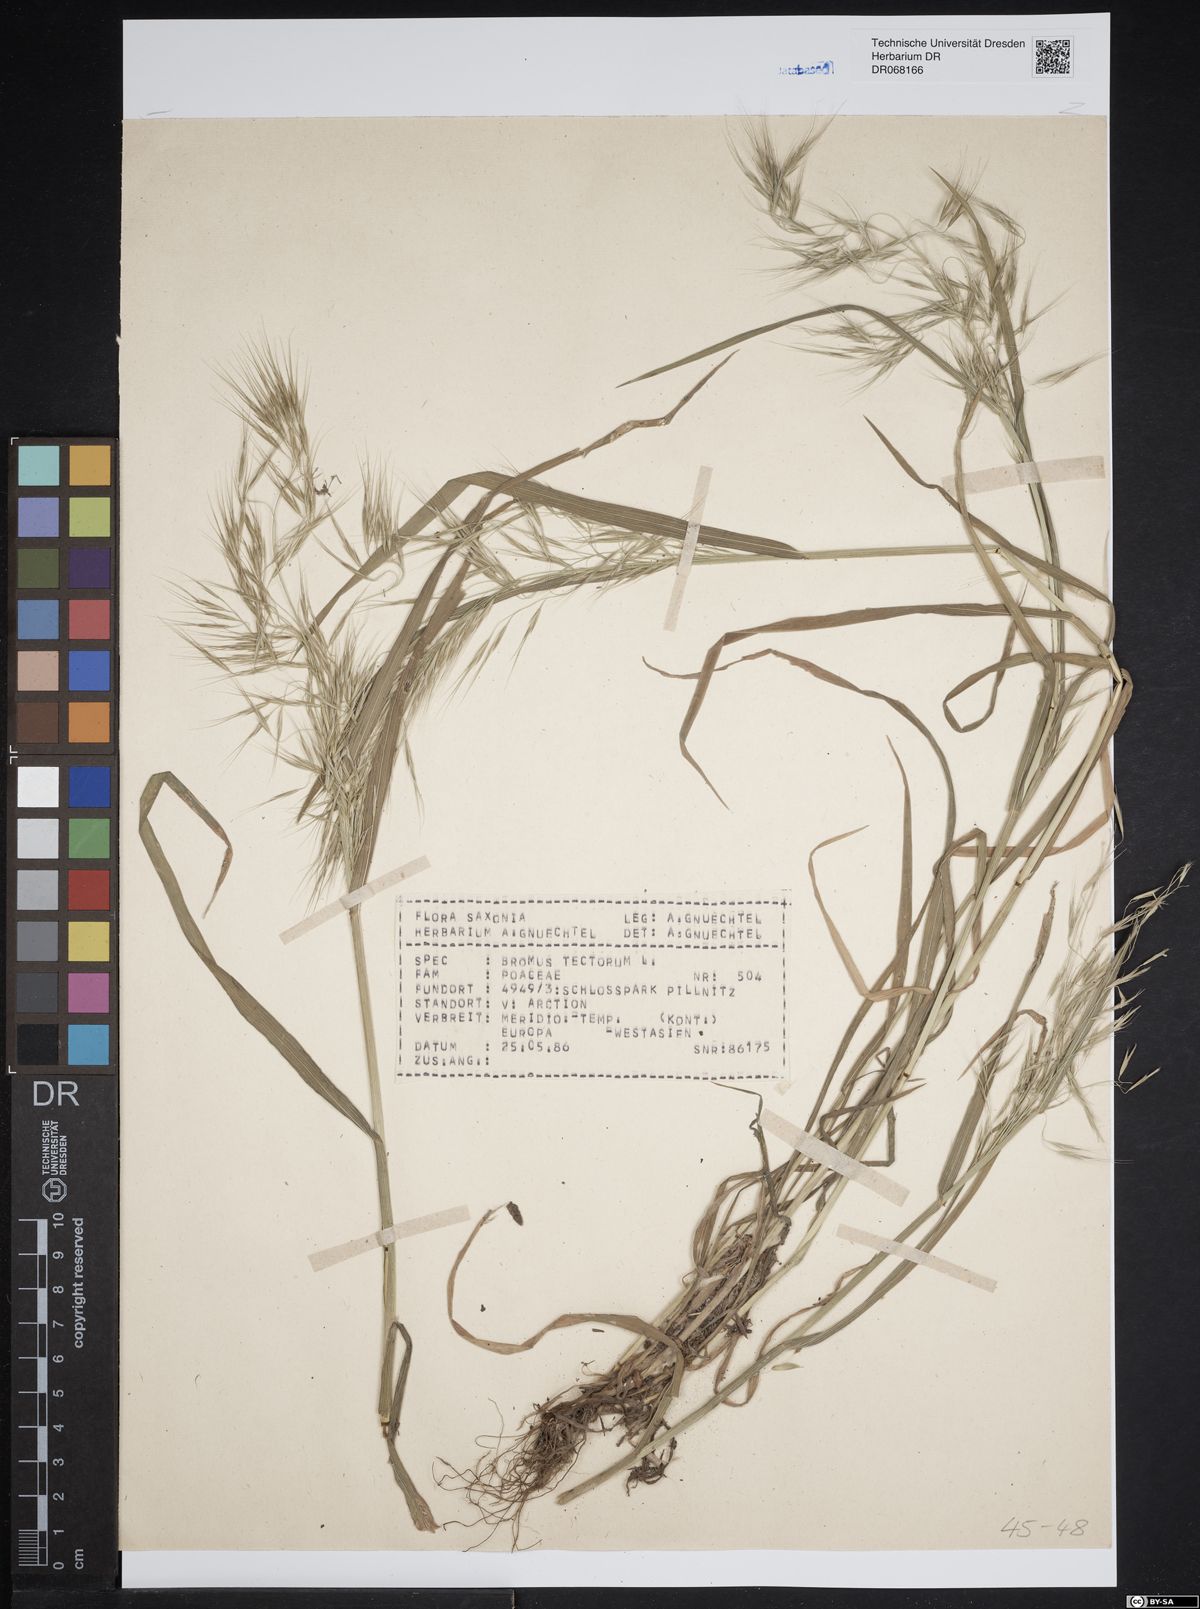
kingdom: Plantae
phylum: Tracheophyta
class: Liliopsida
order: Poales
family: Poaceae
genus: Bromus
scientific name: Bromus tectorum
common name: Cheatgrass
